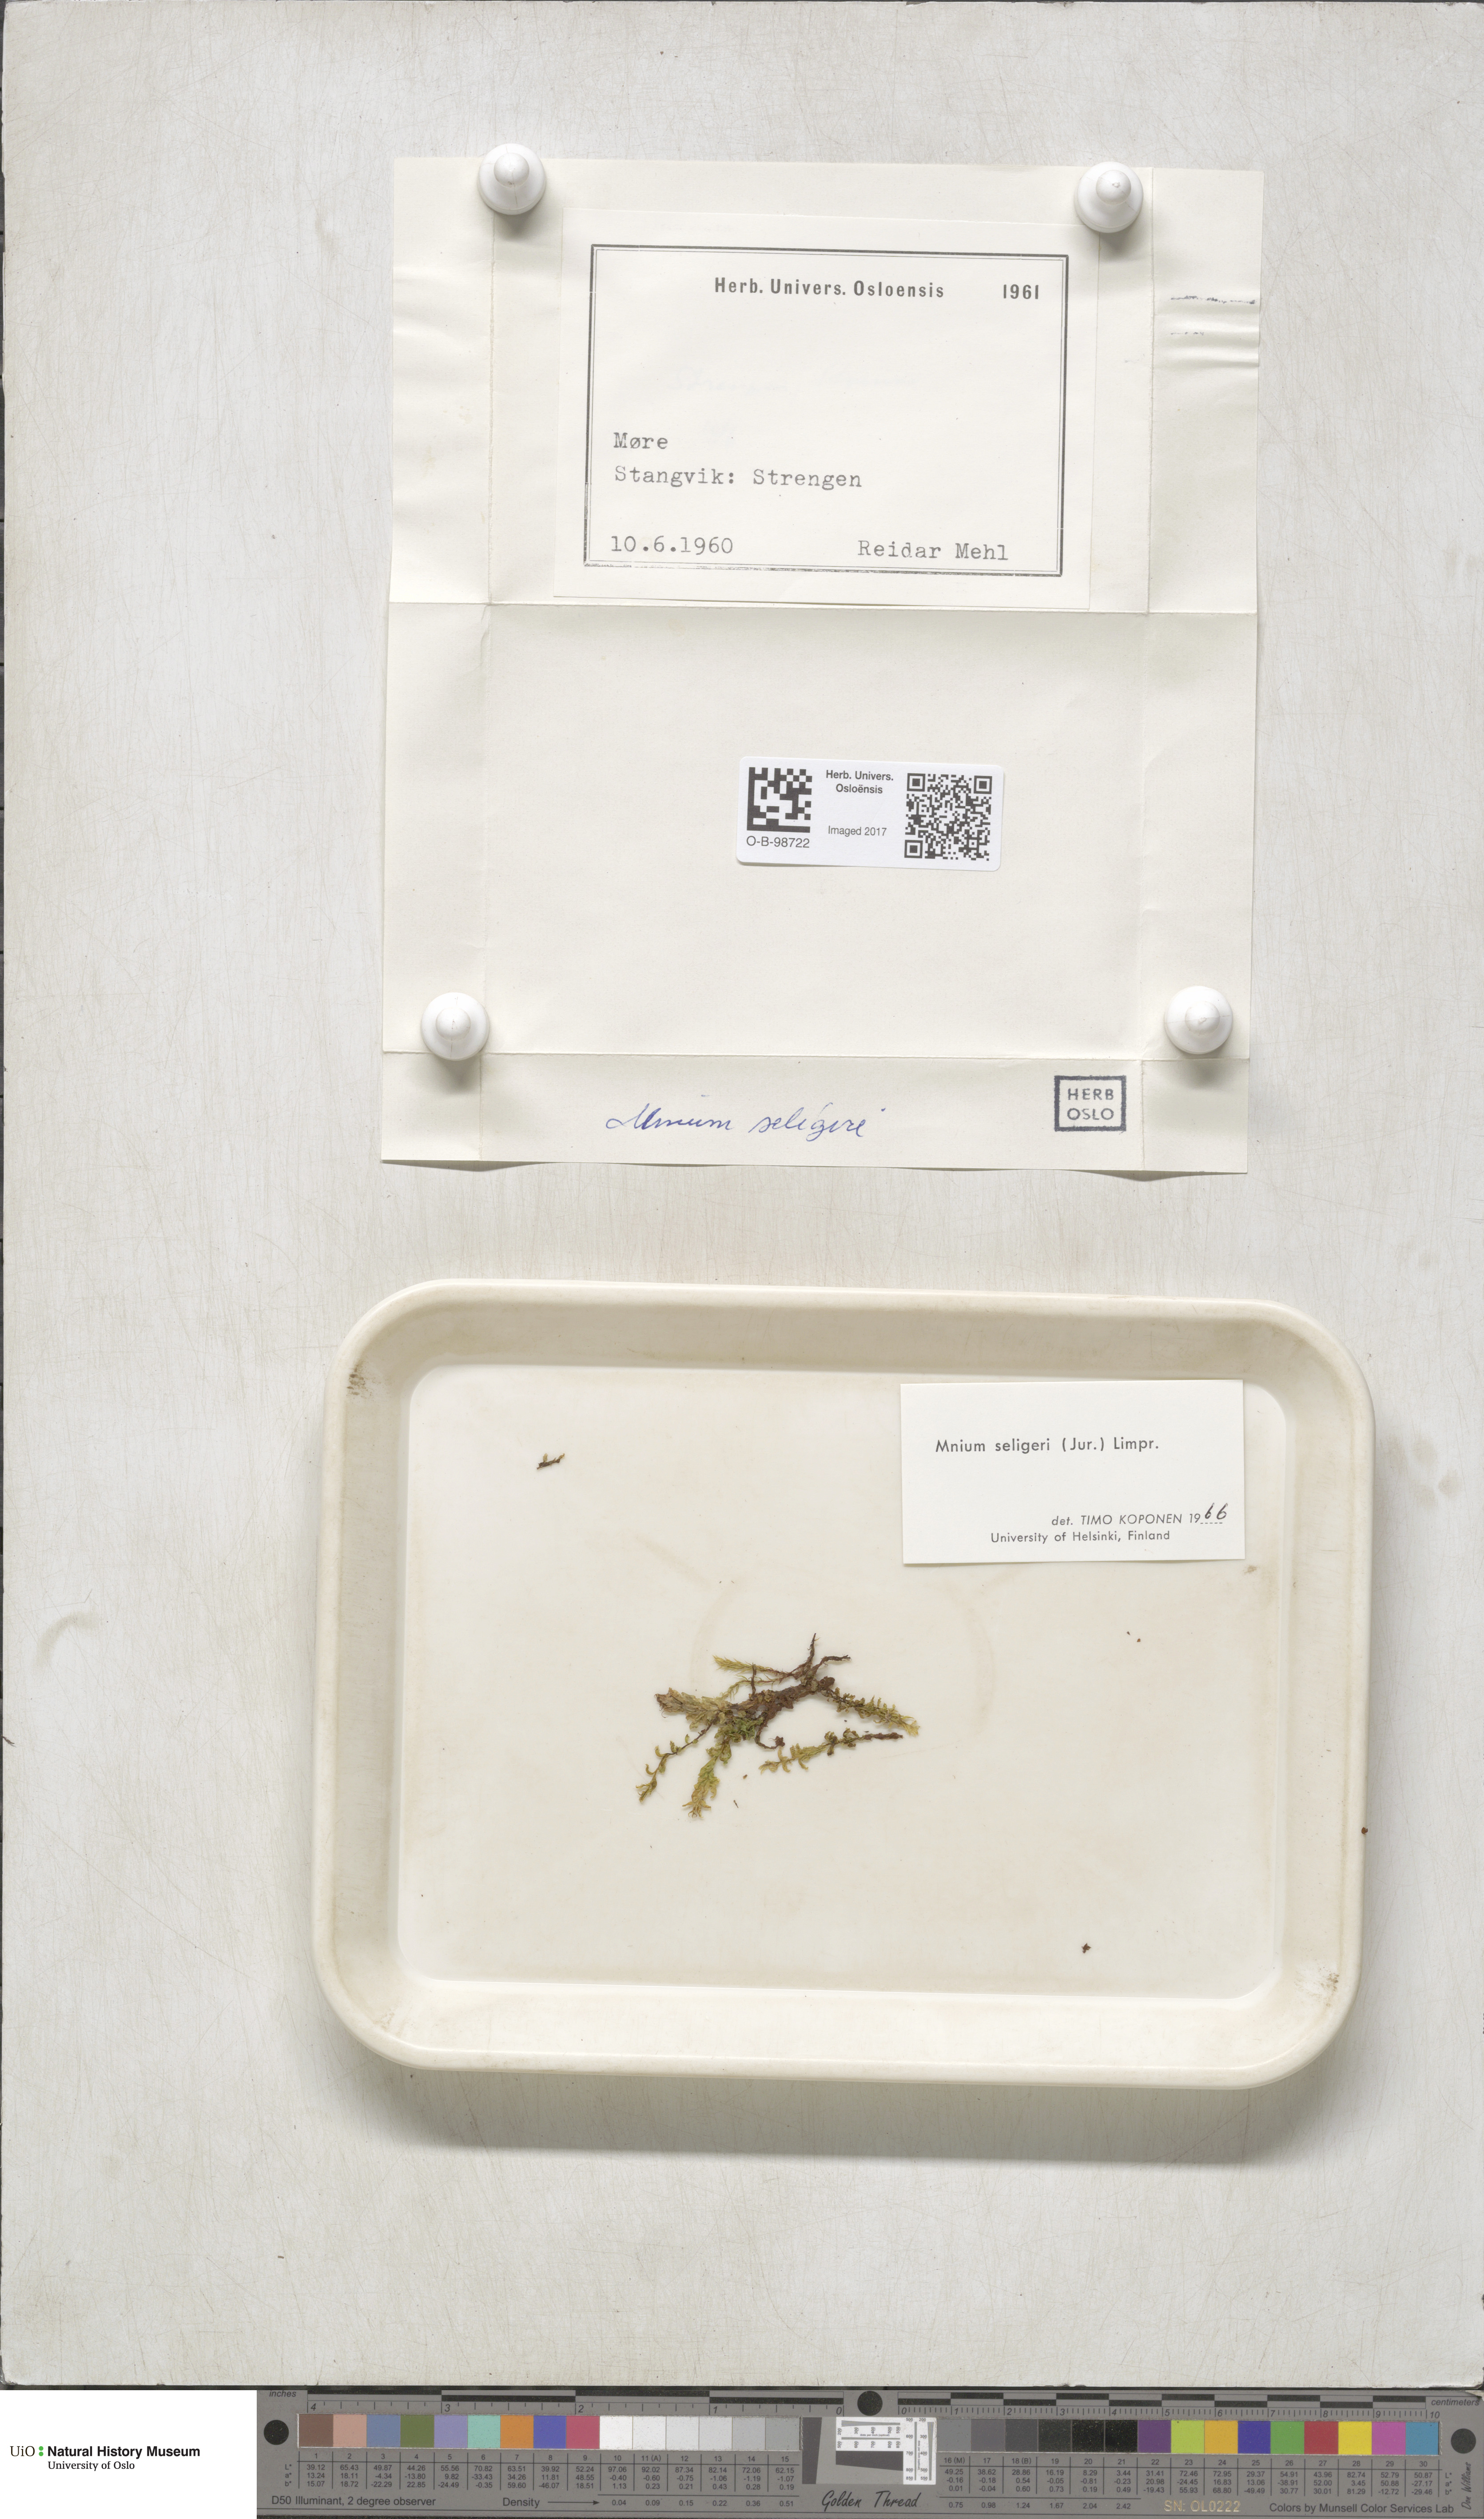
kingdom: Plantae
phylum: Bryophyta
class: Bryopsida
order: Bryales
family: Mniaceae
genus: Plagiomnium
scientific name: Plagiomnium elatum
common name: Tall thyme-moss
